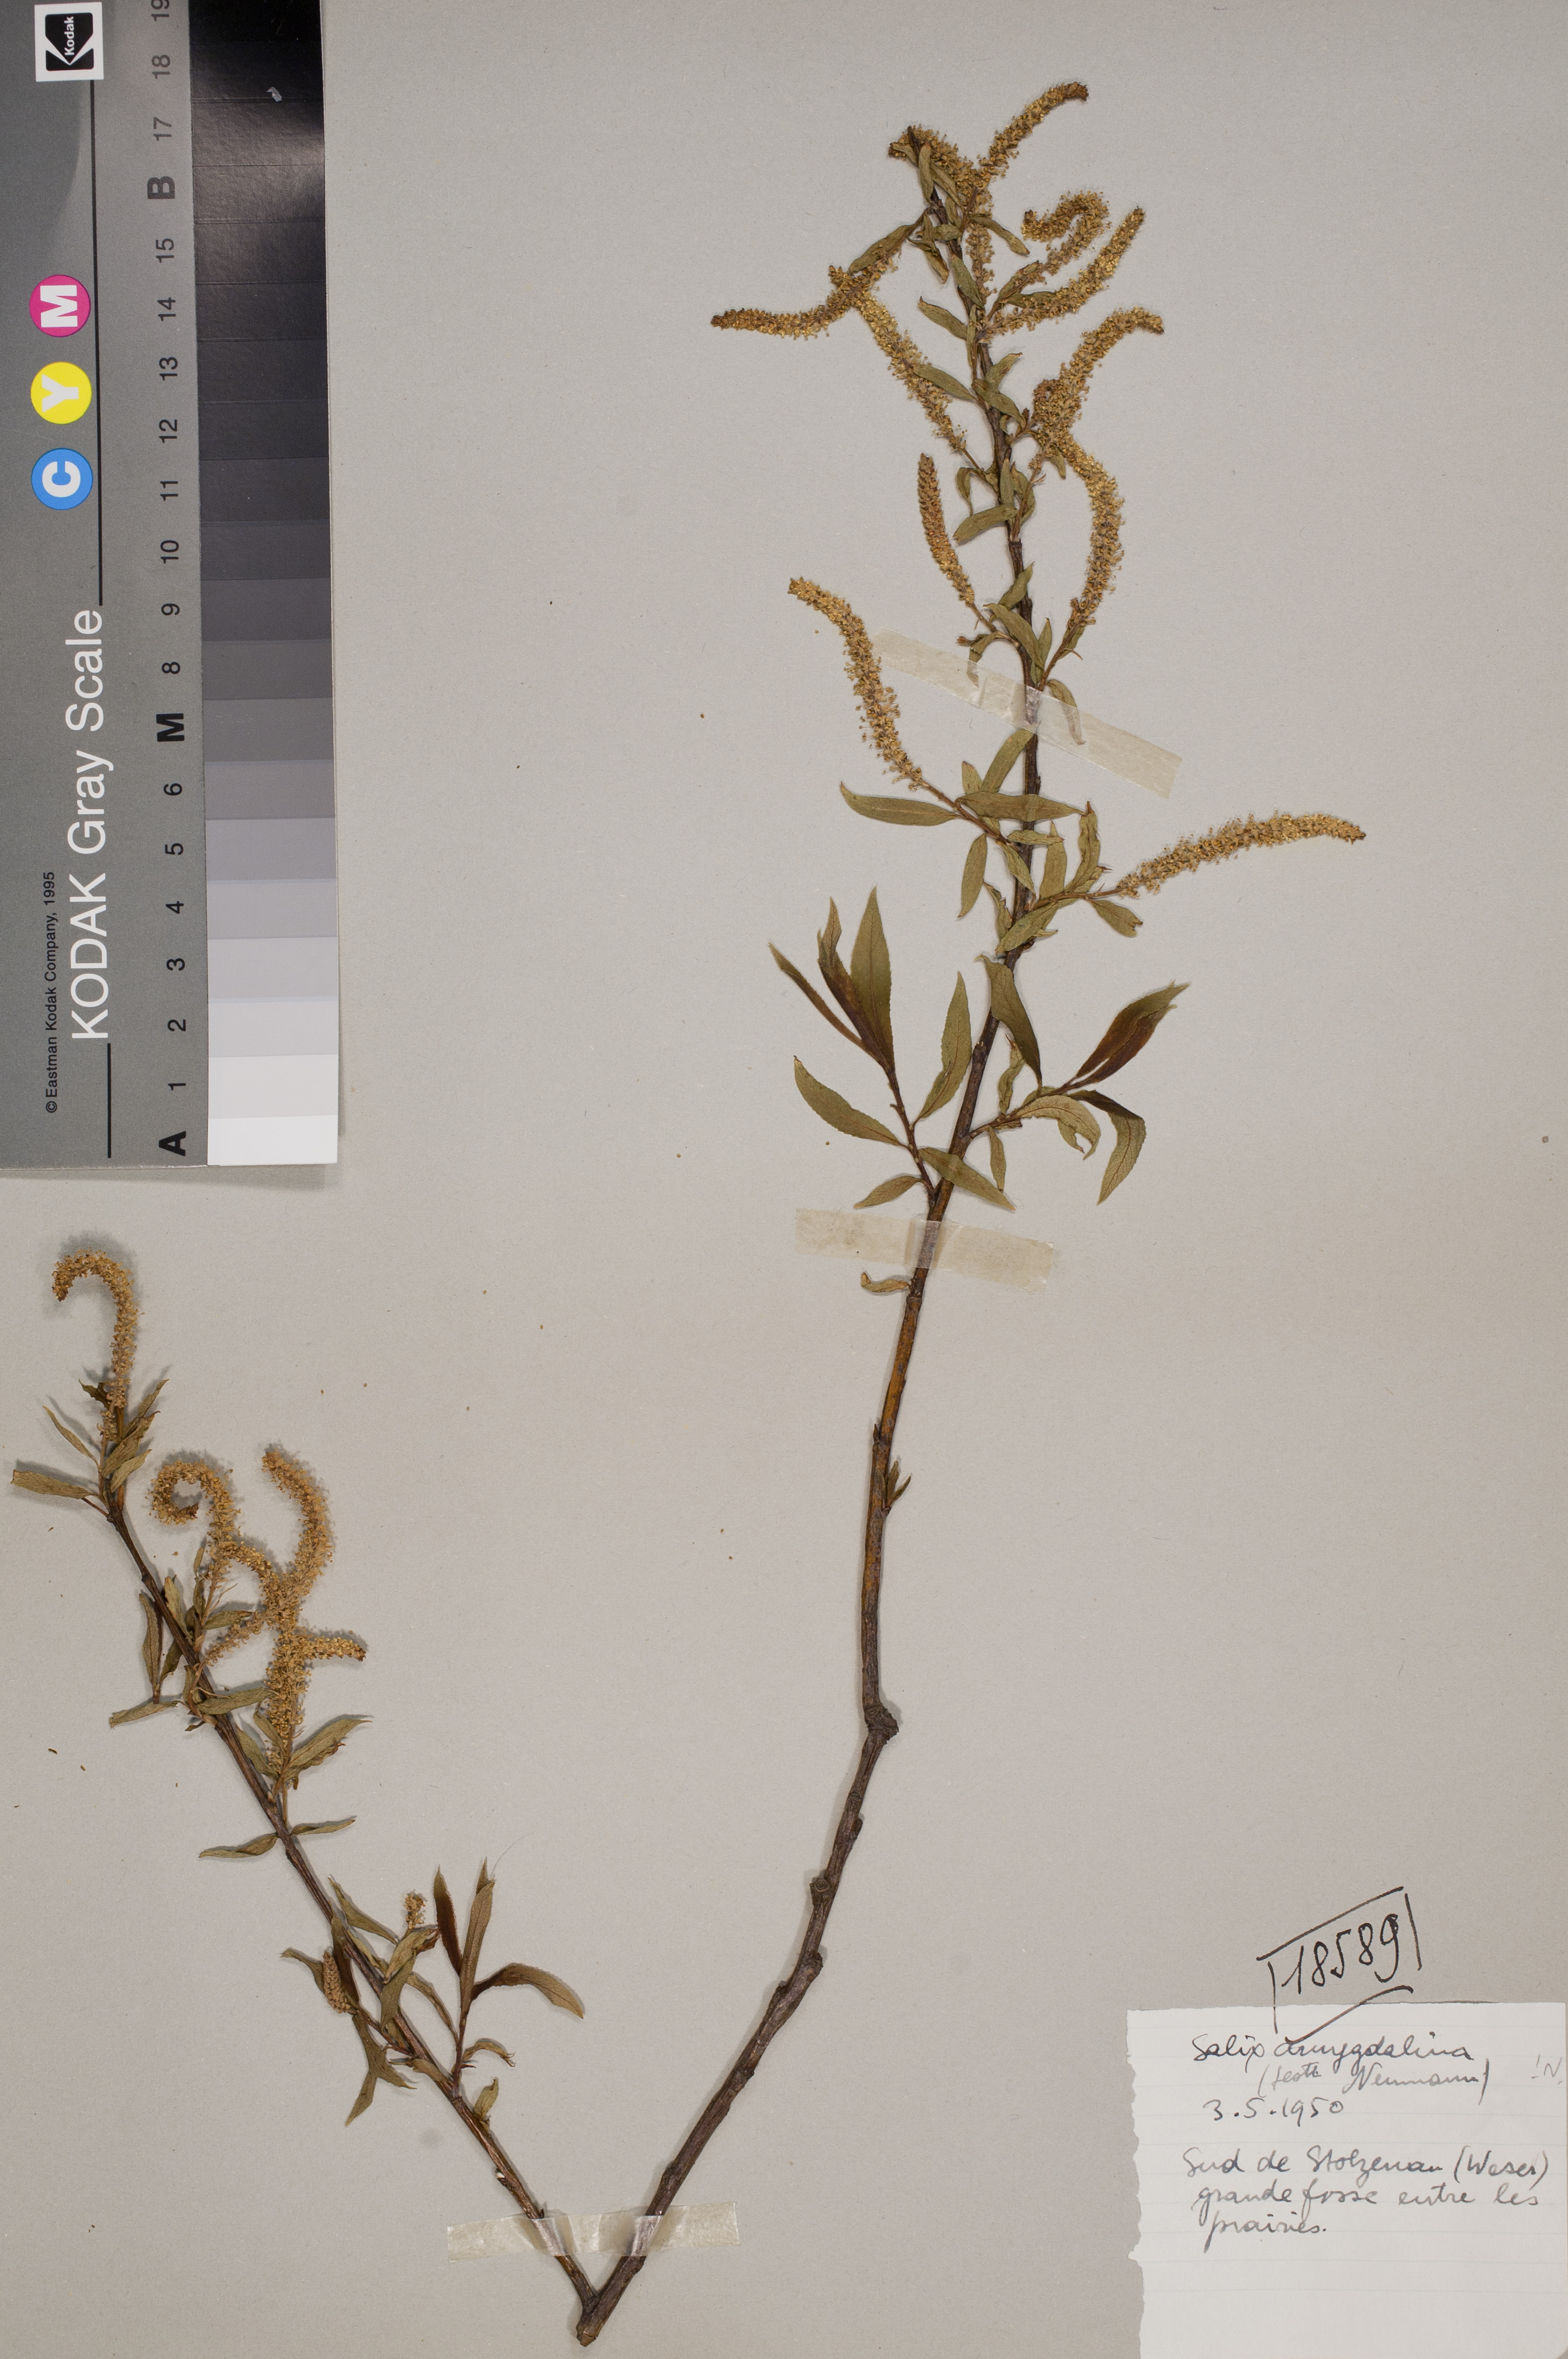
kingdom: Plantae
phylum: Tracheophyta
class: Magnoliopsida
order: Malpighiales
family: Salicaceae
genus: Salix
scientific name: Salix triandra
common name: Almond willow
